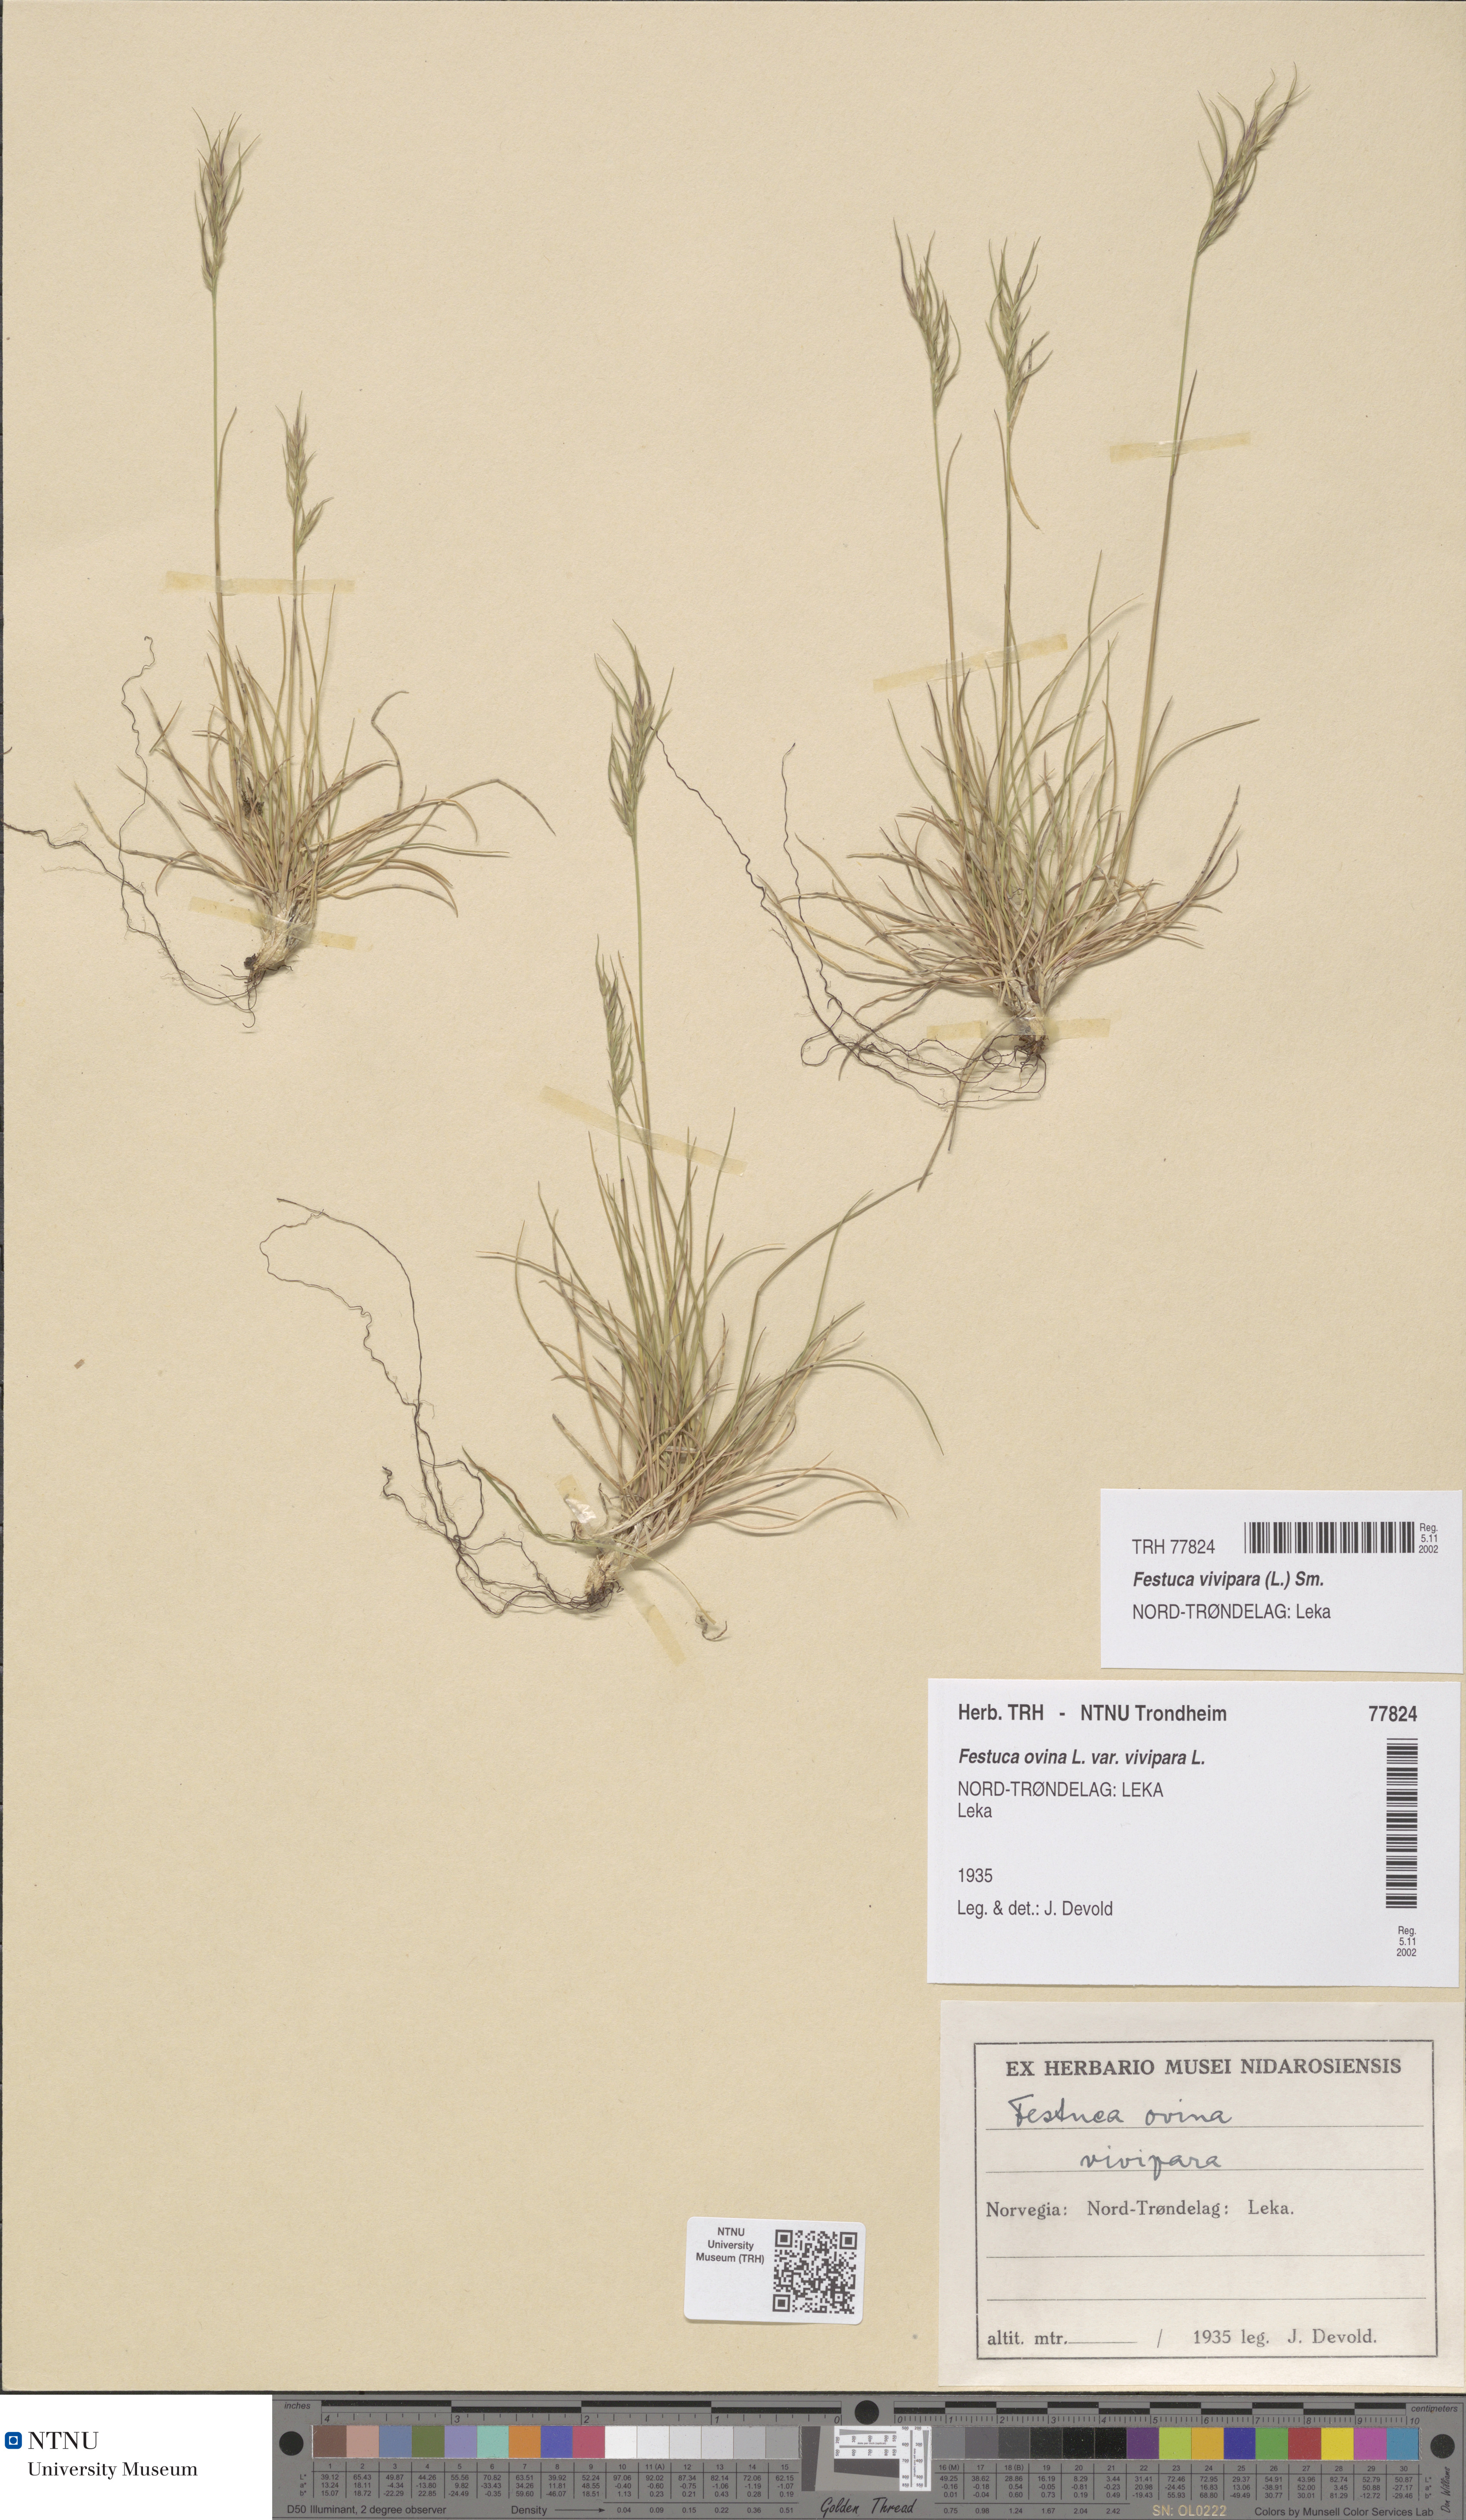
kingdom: Plantae
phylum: Tracheophyta
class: Liliopsida
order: Poales
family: Poaceae
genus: Festuca
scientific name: Festuca vivipara
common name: Viviparous sheep's-fescue
